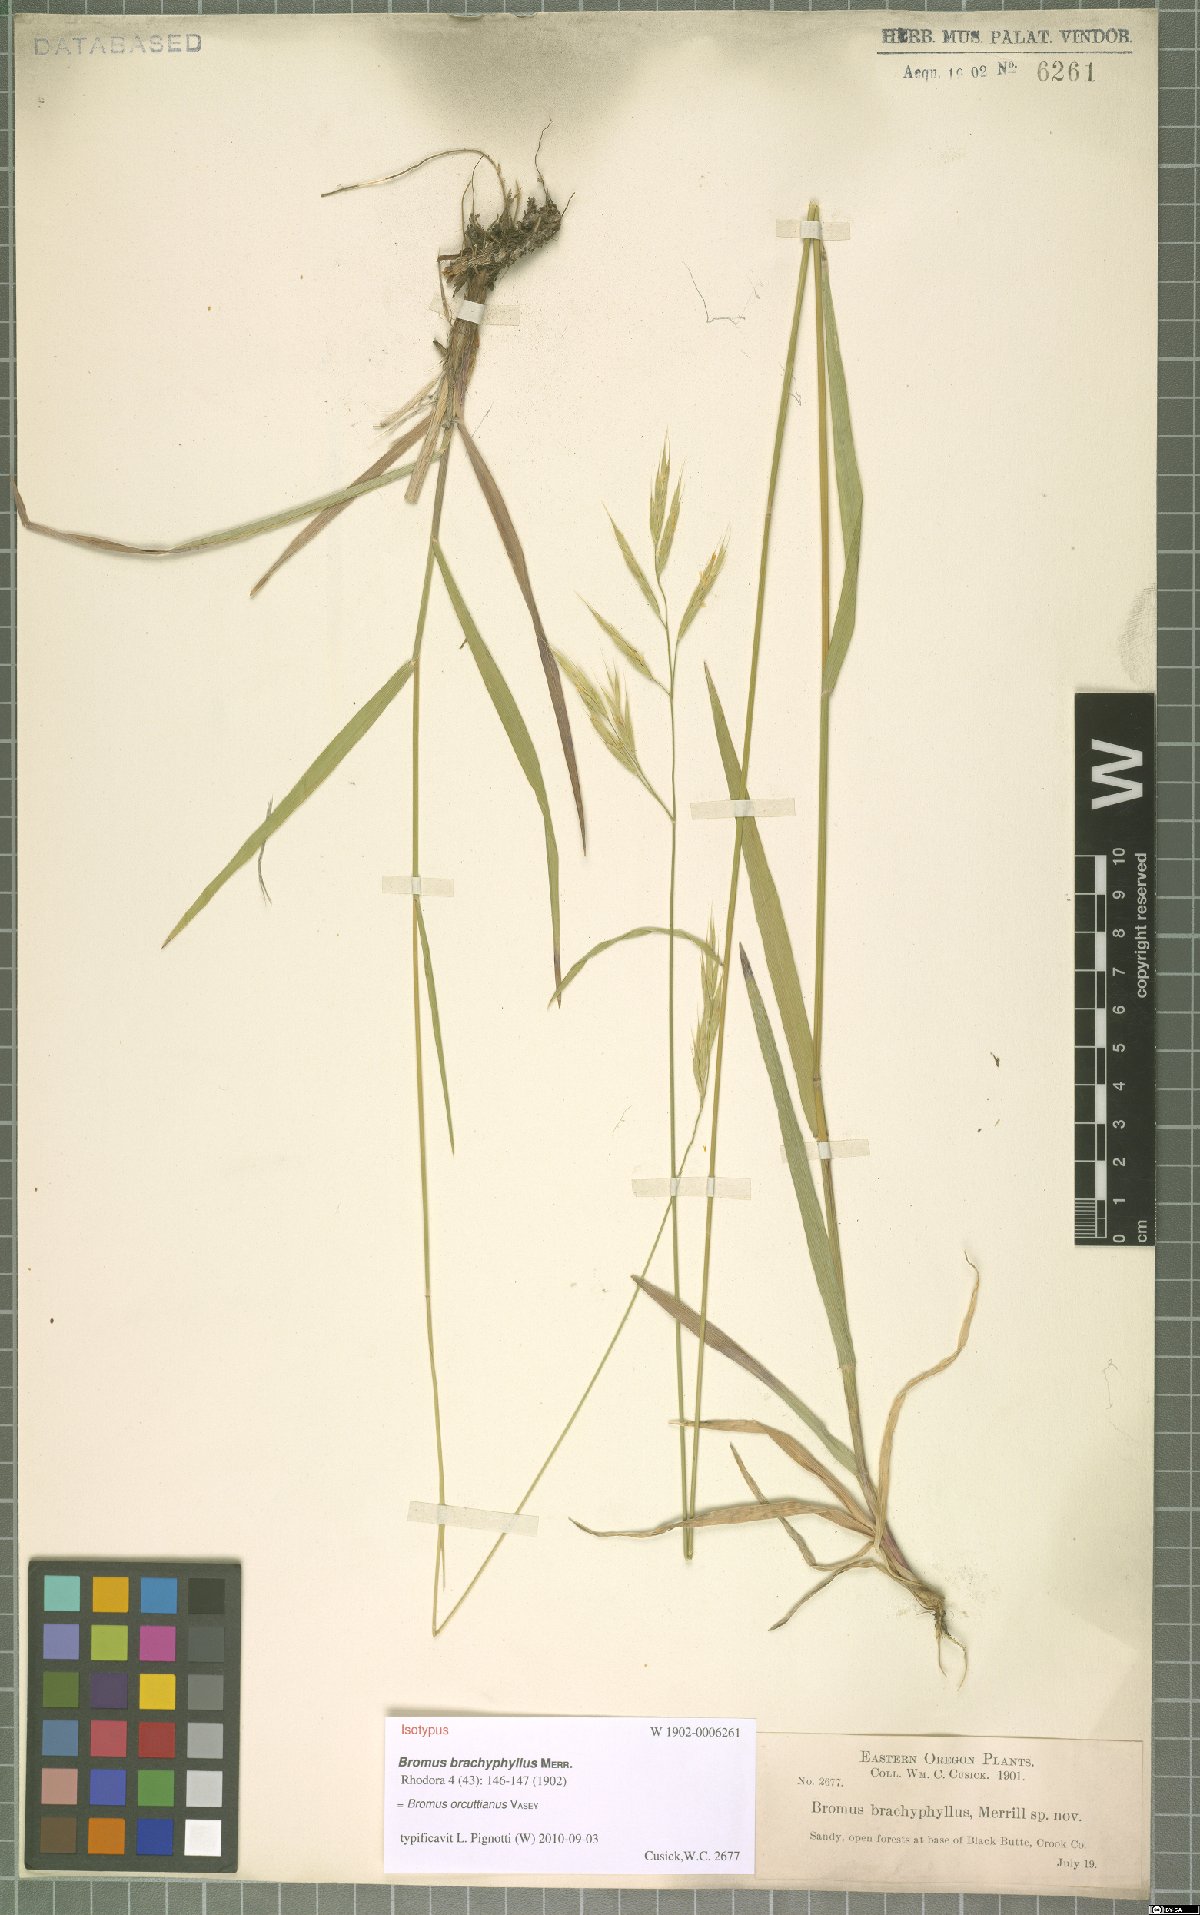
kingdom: Plantae
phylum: Tracheophyta
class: Liliopsida
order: Poales
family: Poaceae
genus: Bromus
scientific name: Bromus orcuttianus
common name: Orcutt's brome
